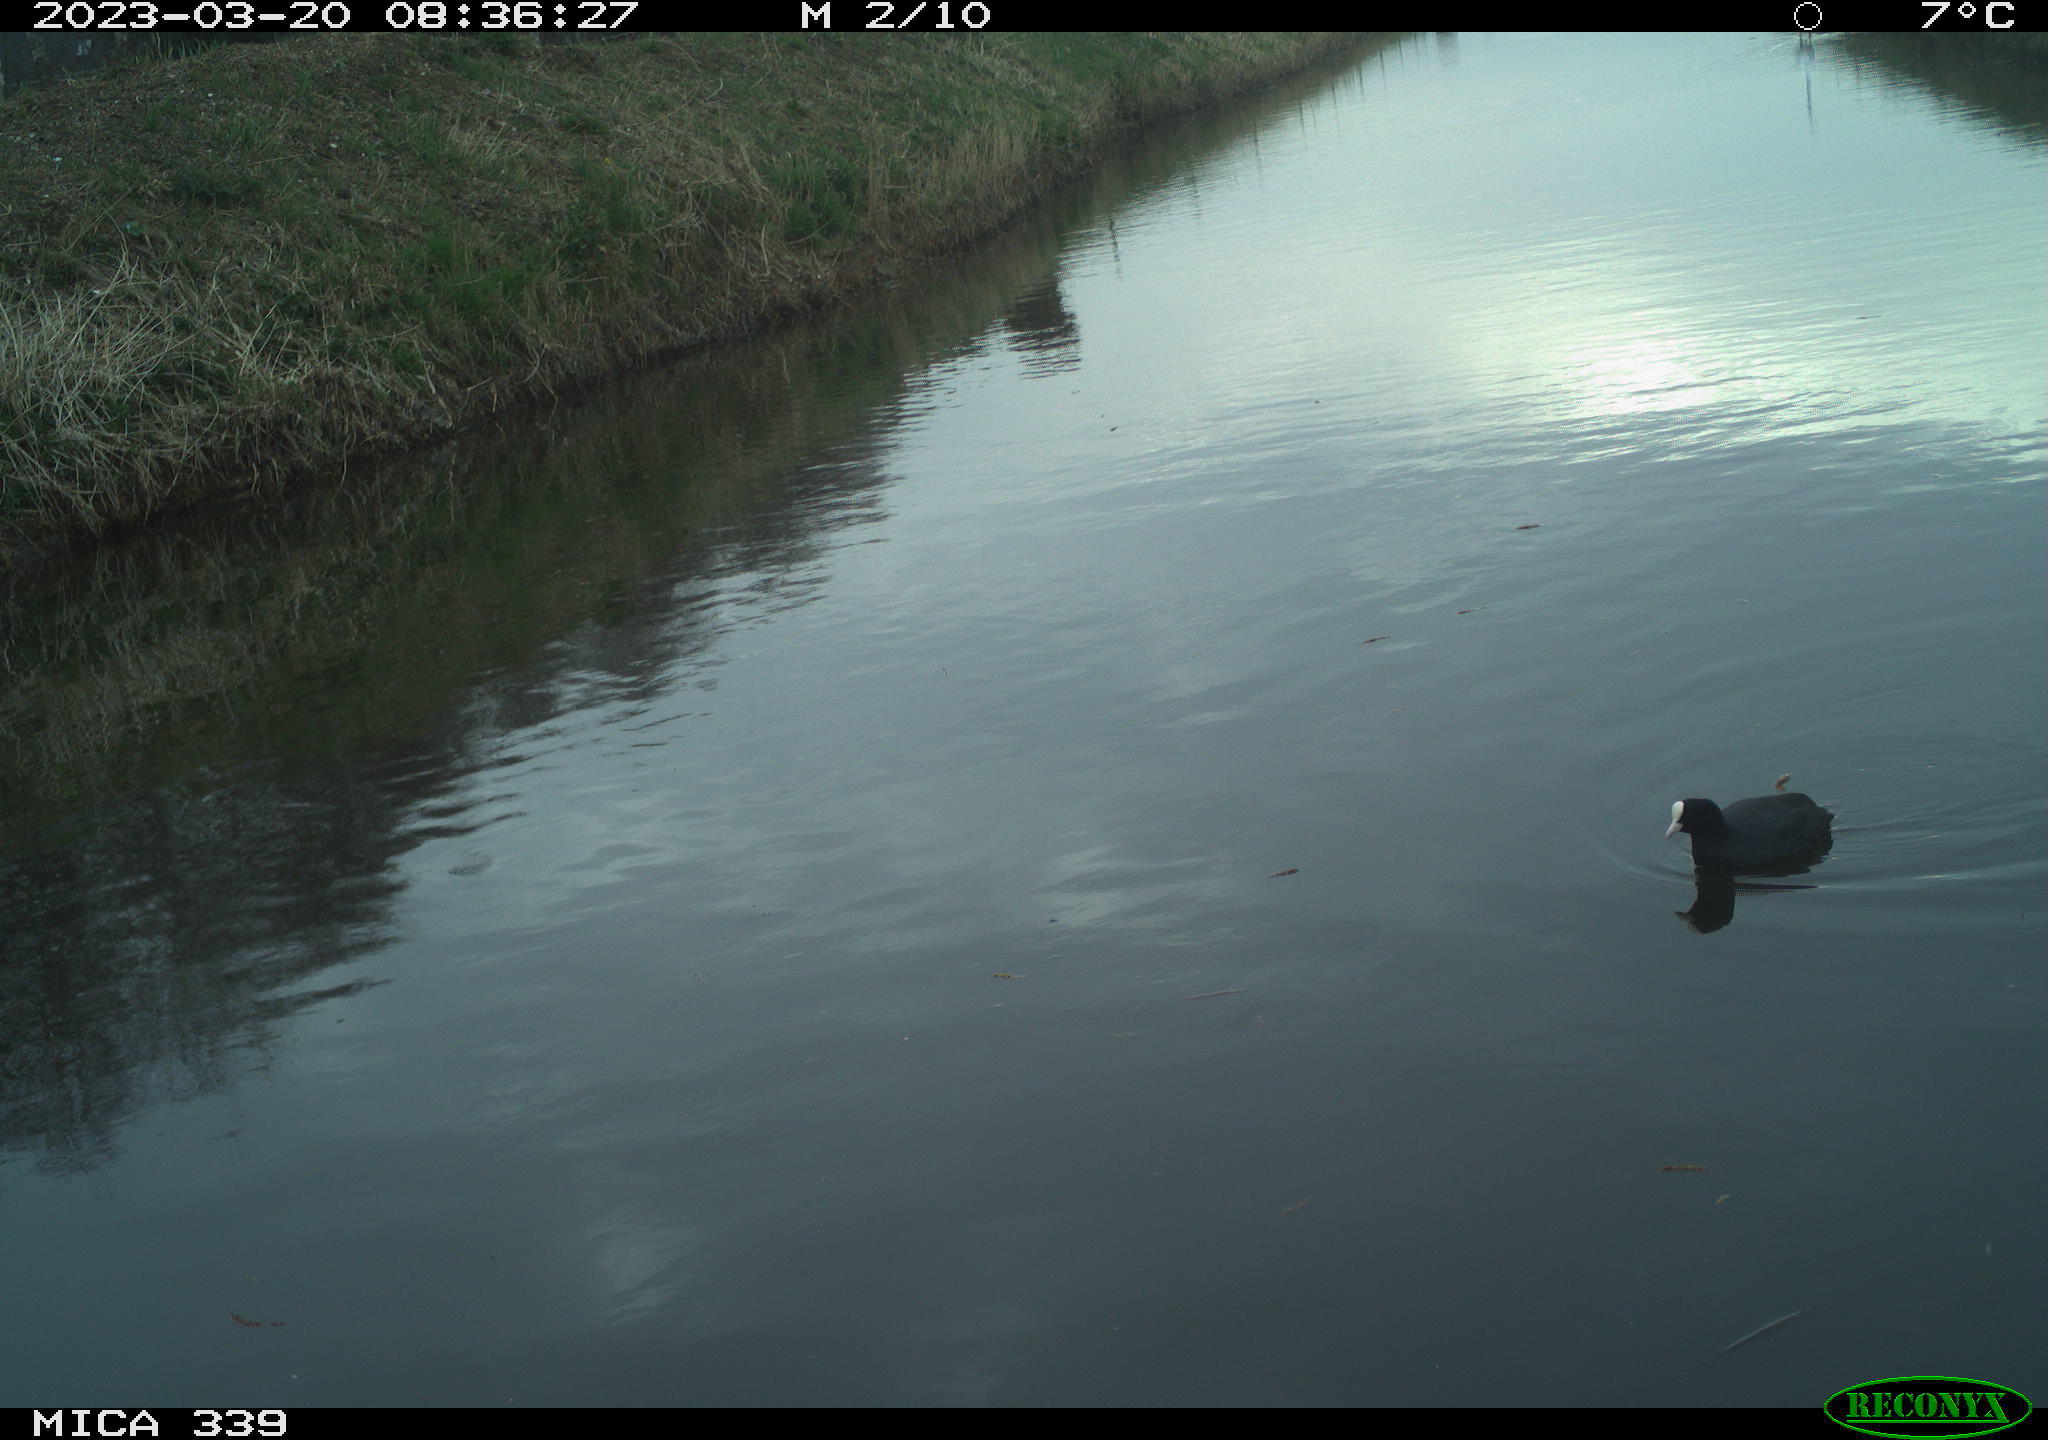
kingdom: Animalia
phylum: Chordata
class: Aves
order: Gruiformes
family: Rallidae
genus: Fulica
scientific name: Fulica atra
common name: Eurasian coot
